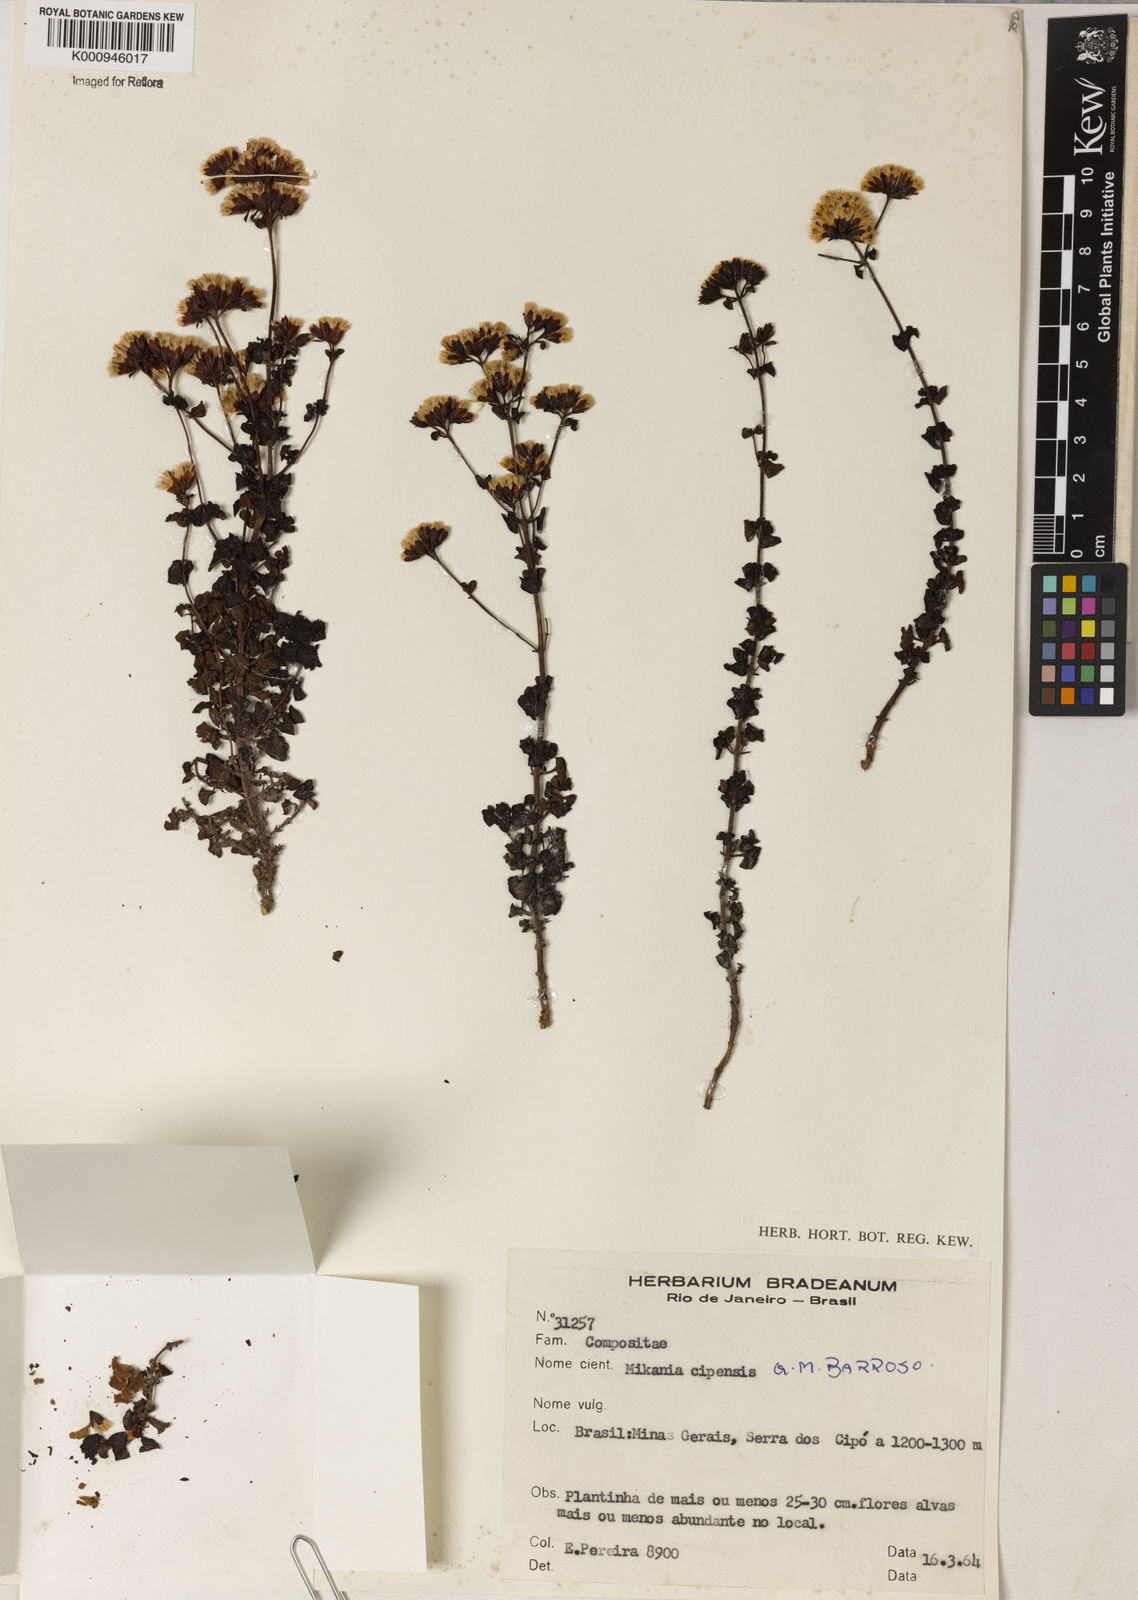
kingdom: Plantae
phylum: Tracheophyta
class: Magnoliopsida
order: Asterales
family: Asteraceae
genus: Mikania
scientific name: Mikania cipoensis
